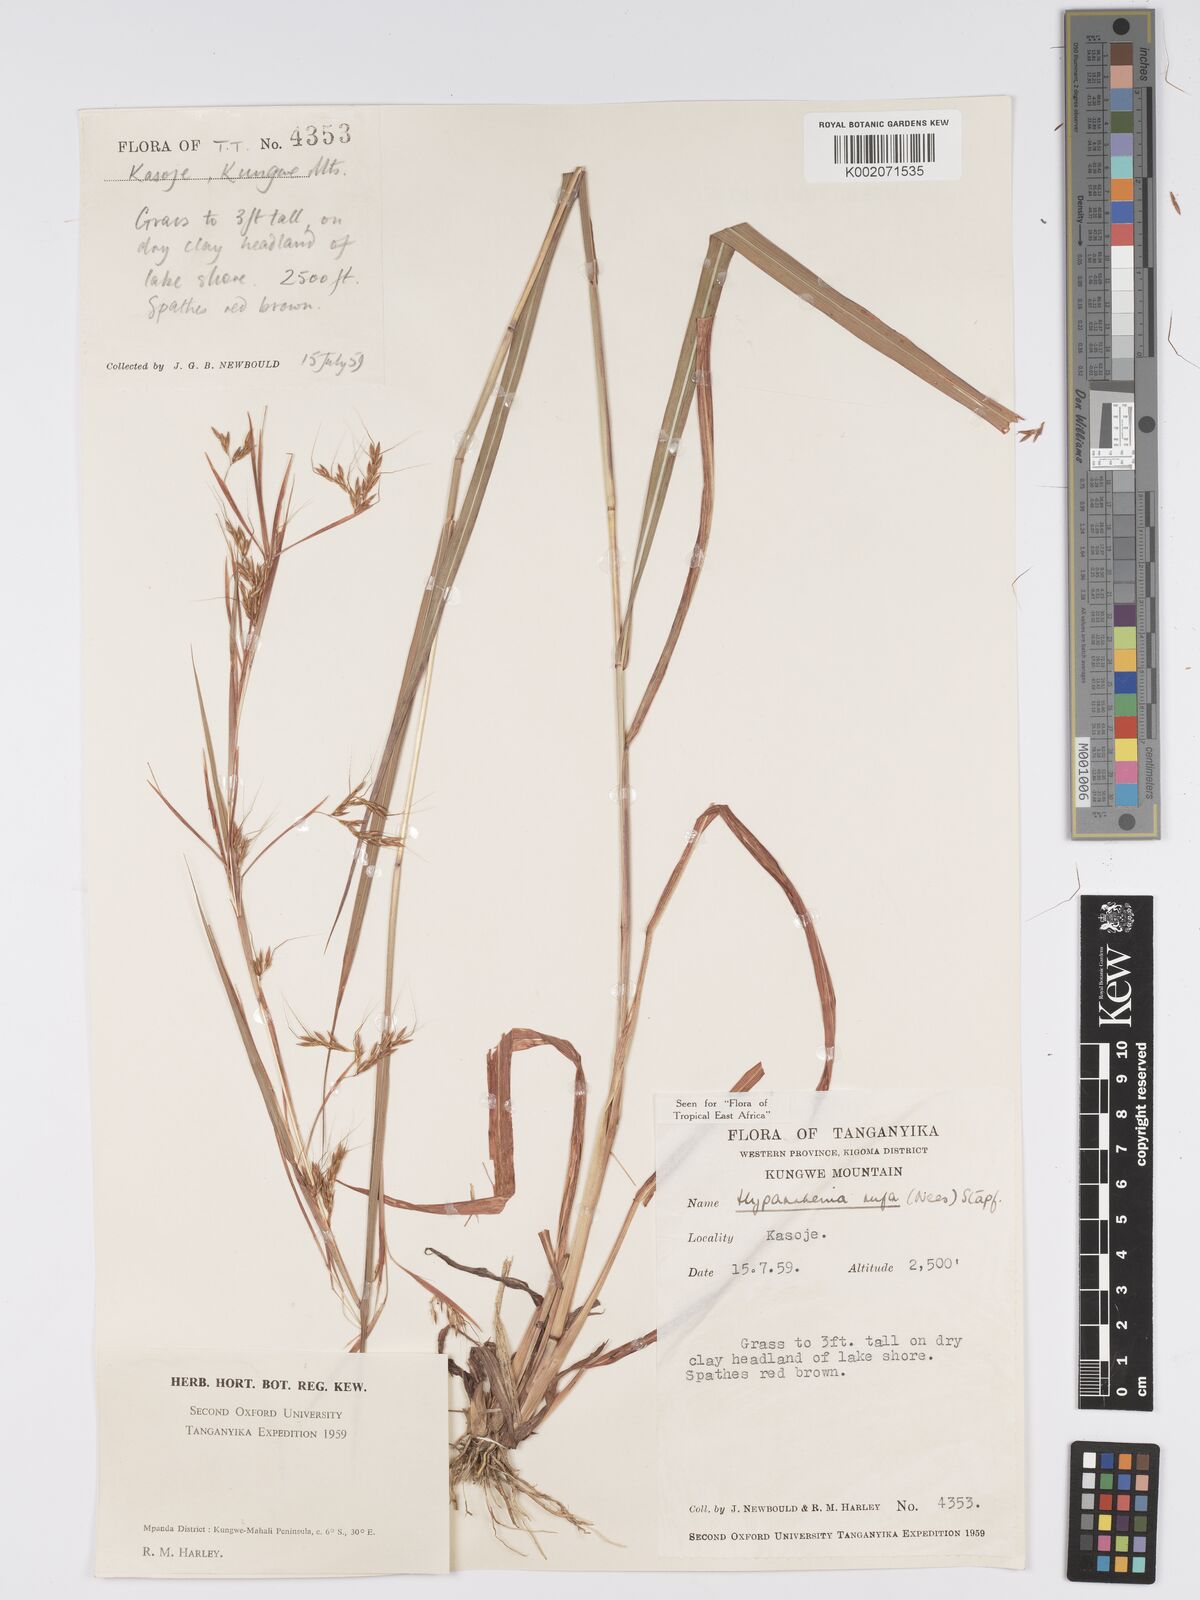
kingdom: Plantae
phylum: Tracheophyta
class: Liliopsida
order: Poales
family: Poaceae
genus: Hyparrhenia
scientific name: Hyparrhenia rufa
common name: Jaraguagrass
